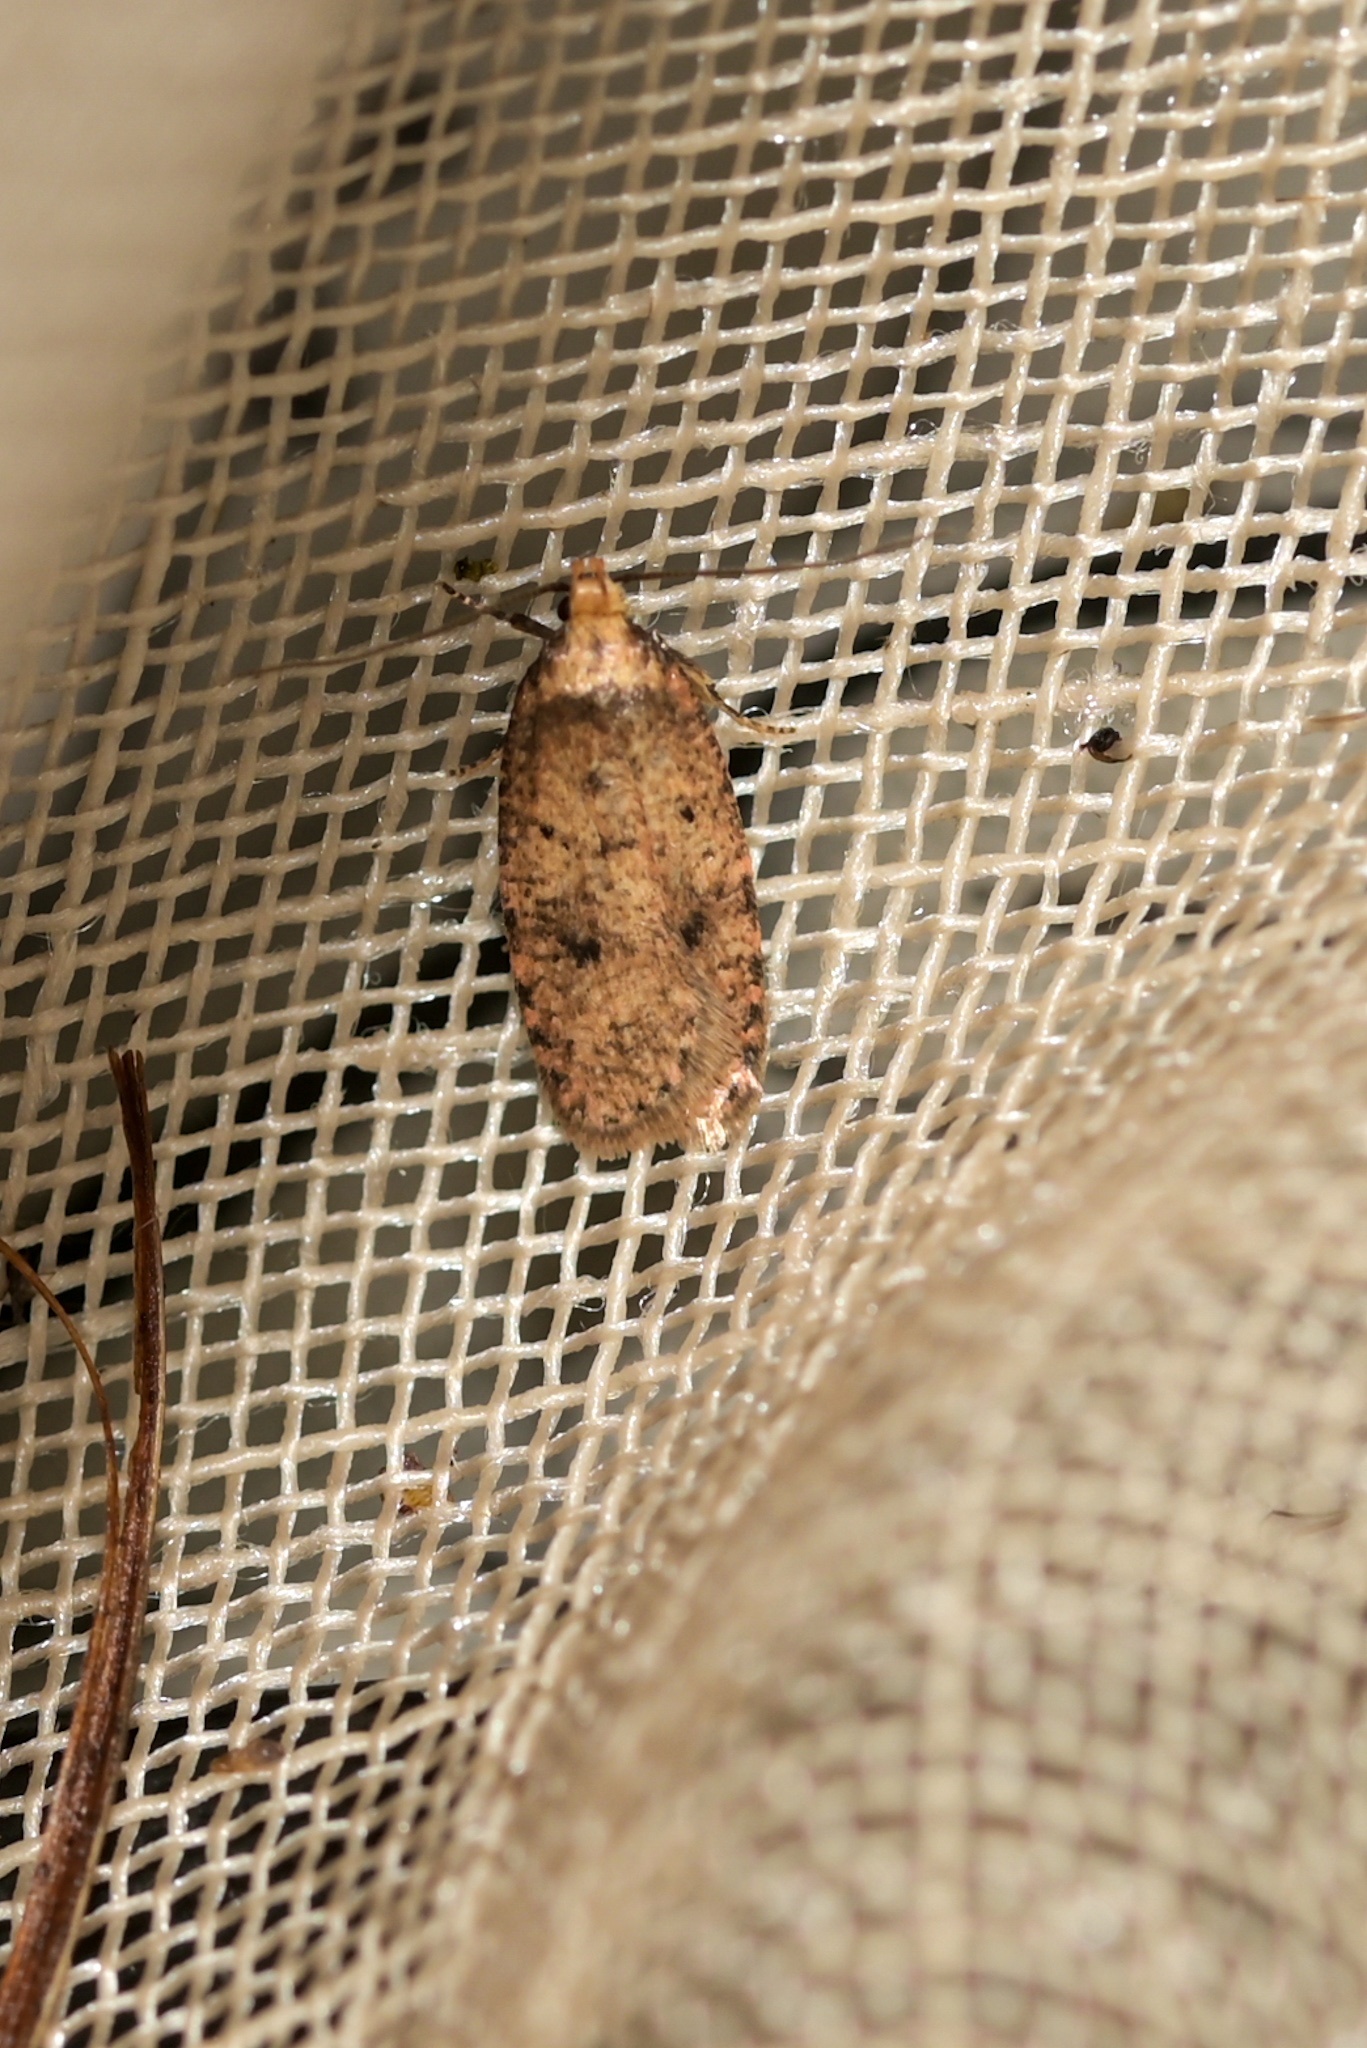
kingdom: Animalia
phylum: Arthropoda
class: Insecta
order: Lepidoptera
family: Depressariidae
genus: Agonopterix
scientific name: Agonopterix angelicella
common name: Angelica flat-body
